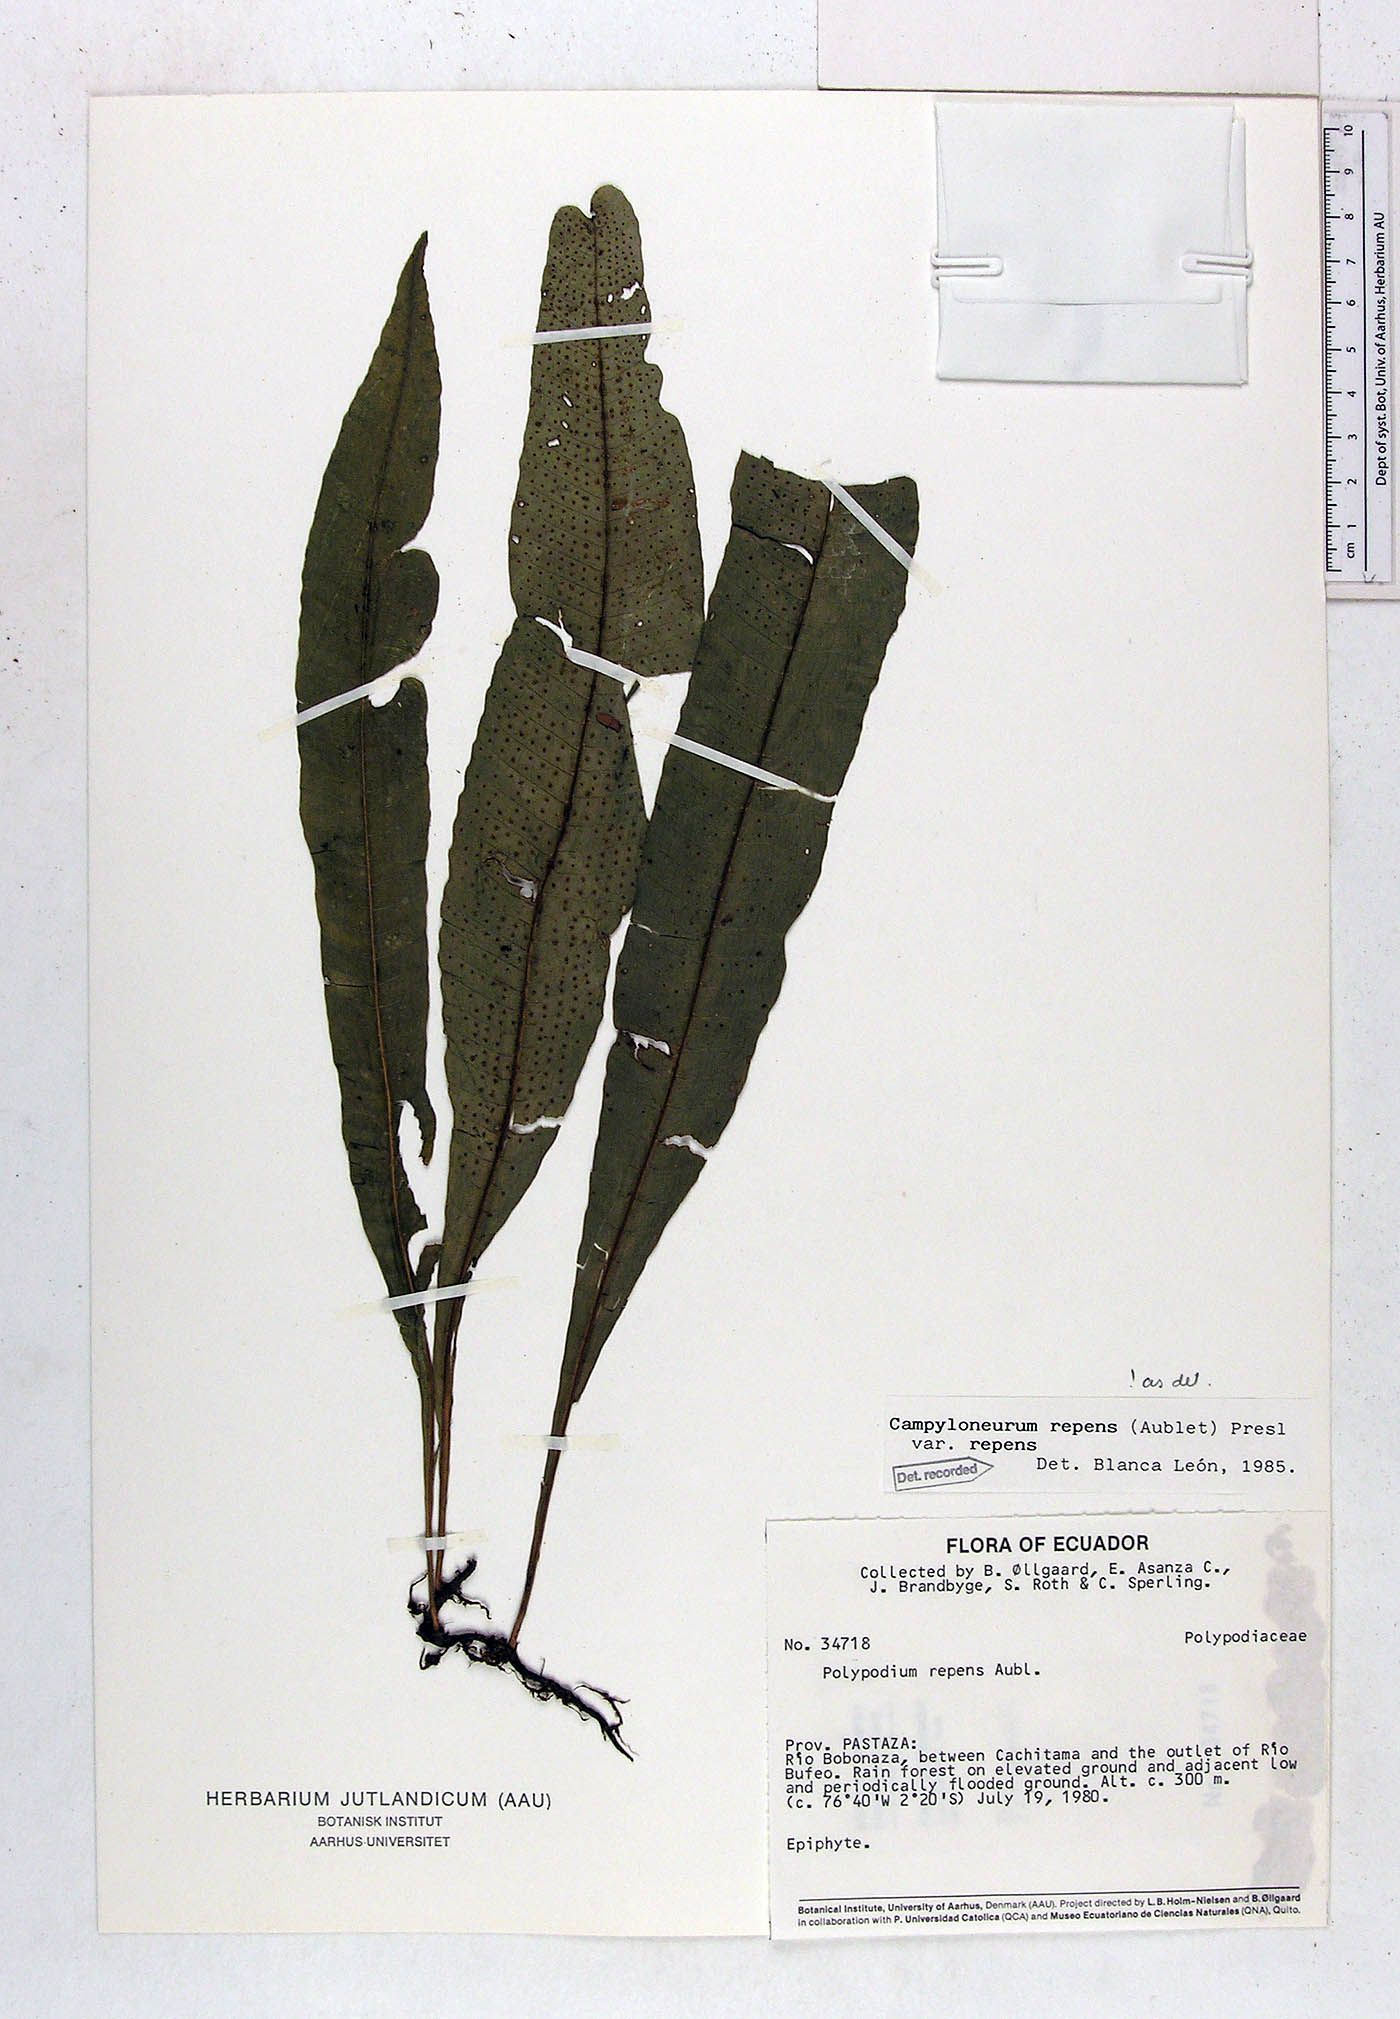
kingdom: Plantae
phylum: Tracheophyta
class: Polypodiopsida
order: Polypodiales
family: Polypodiaceae
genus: Campyloneurum
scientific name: Campyloneurum repens
